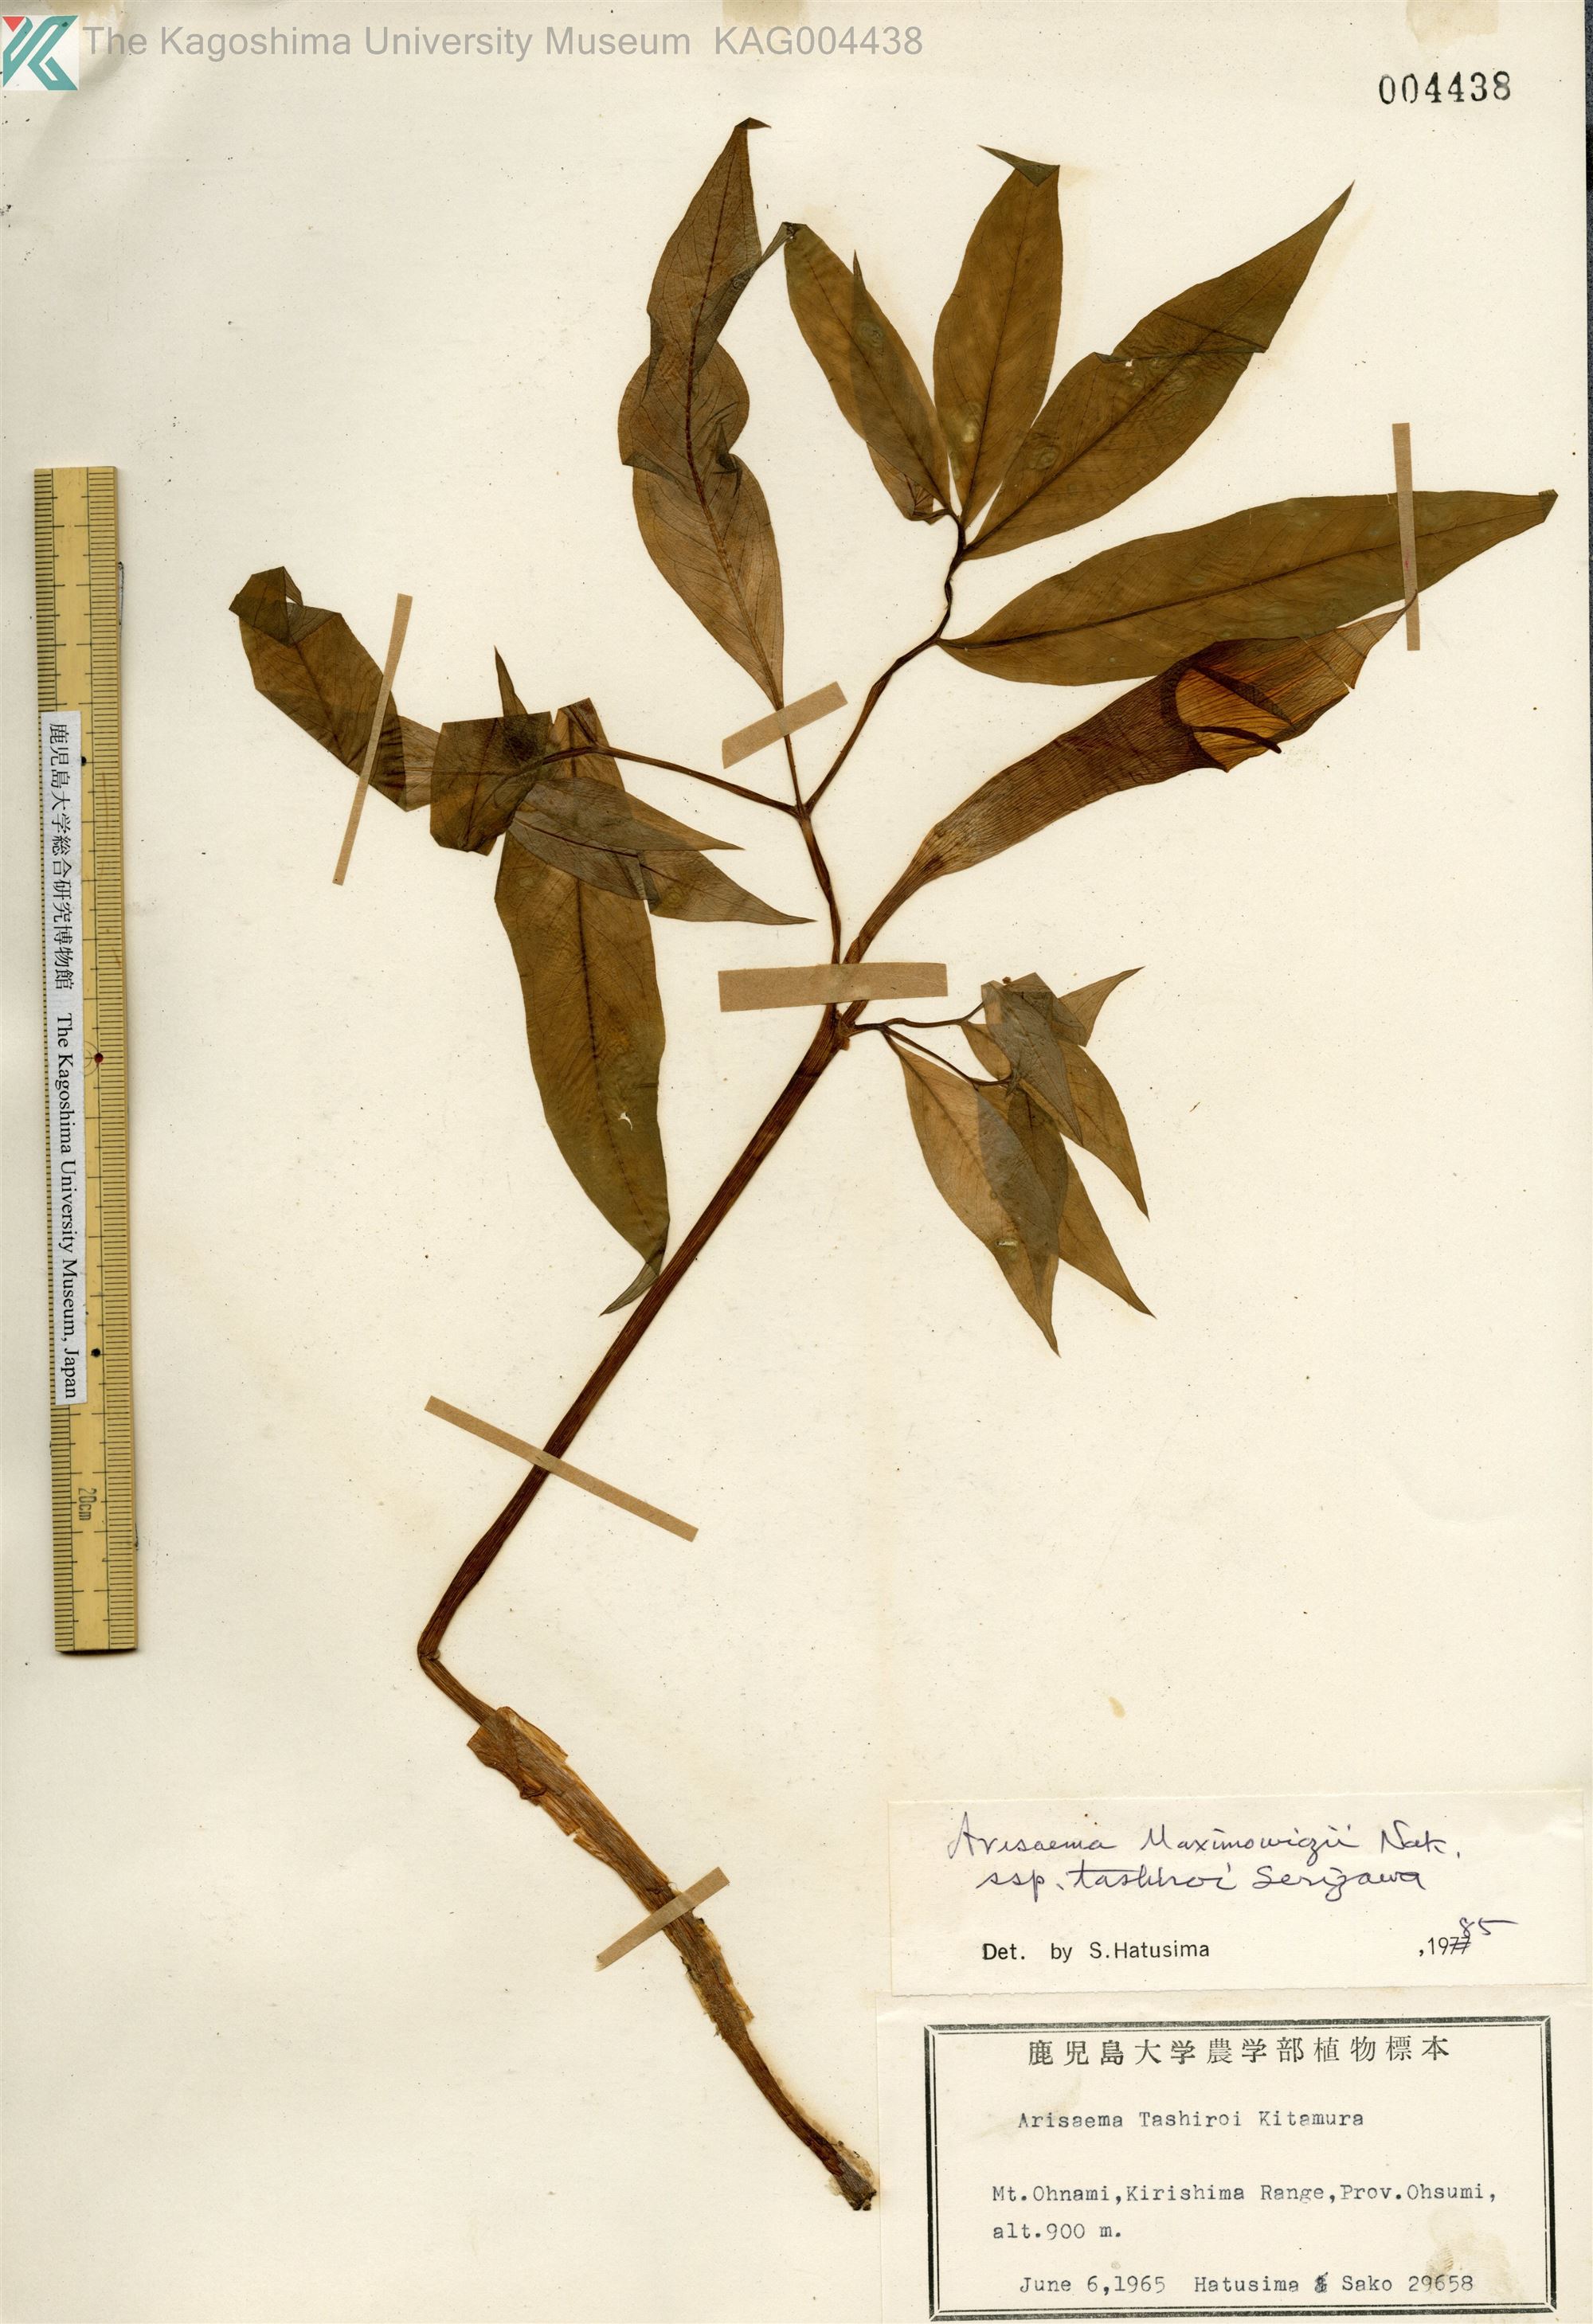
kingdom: Plantae
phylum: Tracheophyta
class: Liliopsida
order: Alismatales
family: Araceae
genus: Arisaema
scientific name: Arisaema tashiroi
